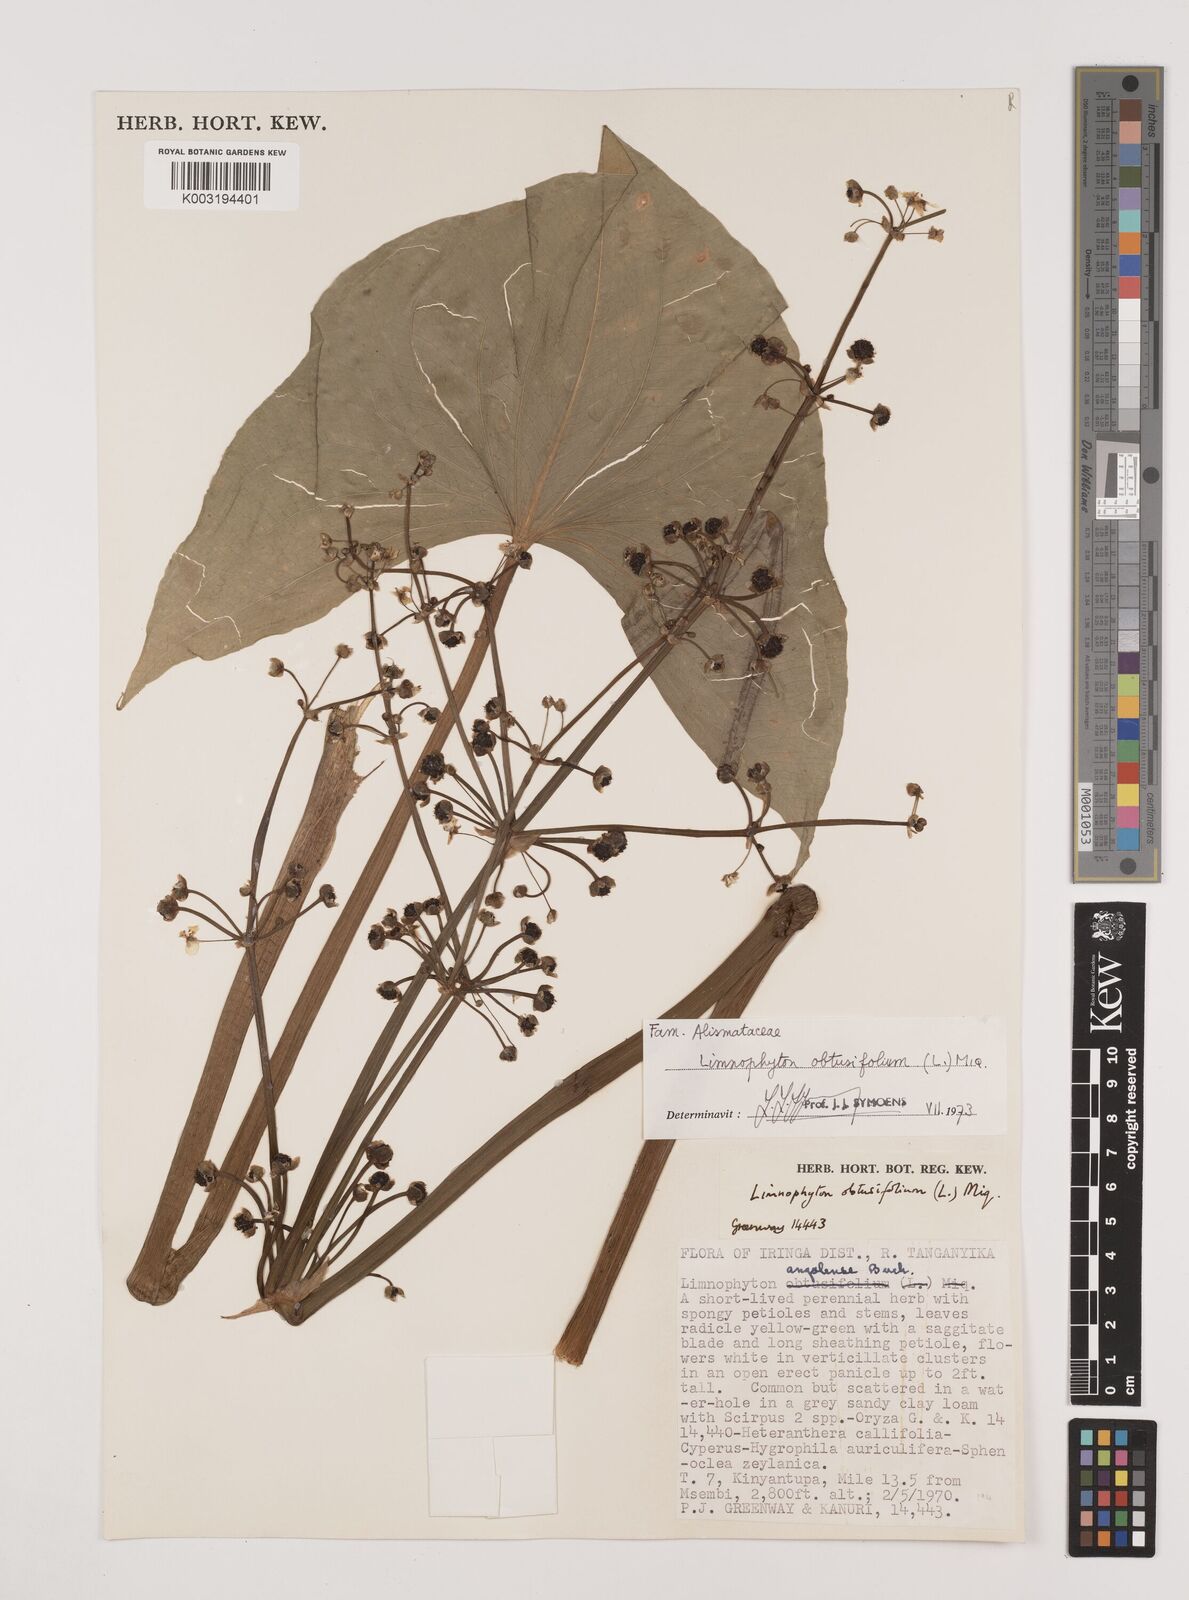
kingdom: Plantae
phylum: Tracheophyta
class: Liliopsida
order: Alismatales
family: Alismataceae
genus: Limnophyton
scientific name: Limnophyton obtusifolium
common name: Arrow head
